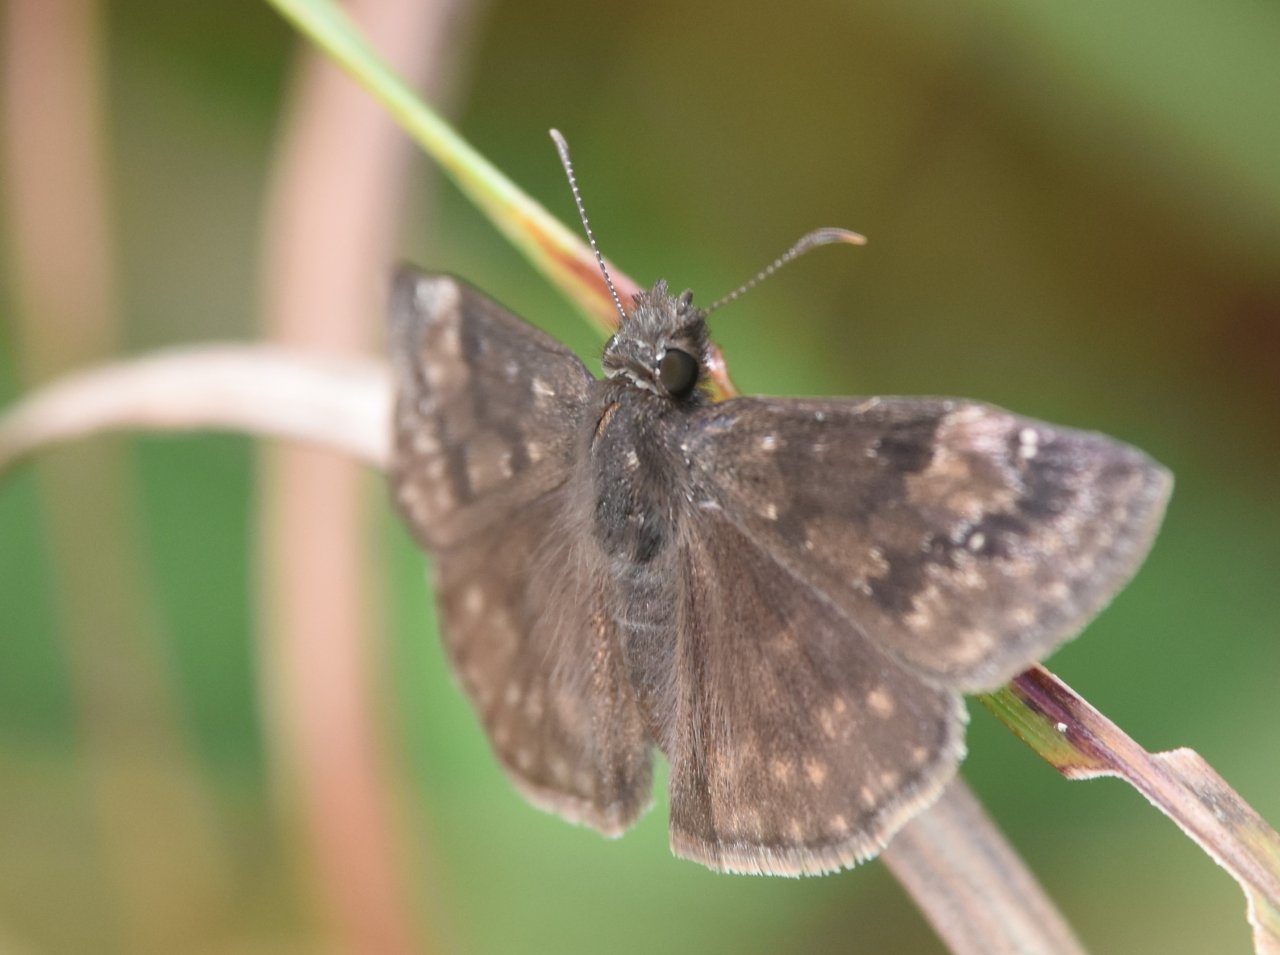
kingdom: Animalia
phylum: Arthropoda
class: Insecta
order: Lepidoptera
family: Hesperiidae
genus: Gesta
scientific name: Gesta
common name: Wild Indigo Duskywing
